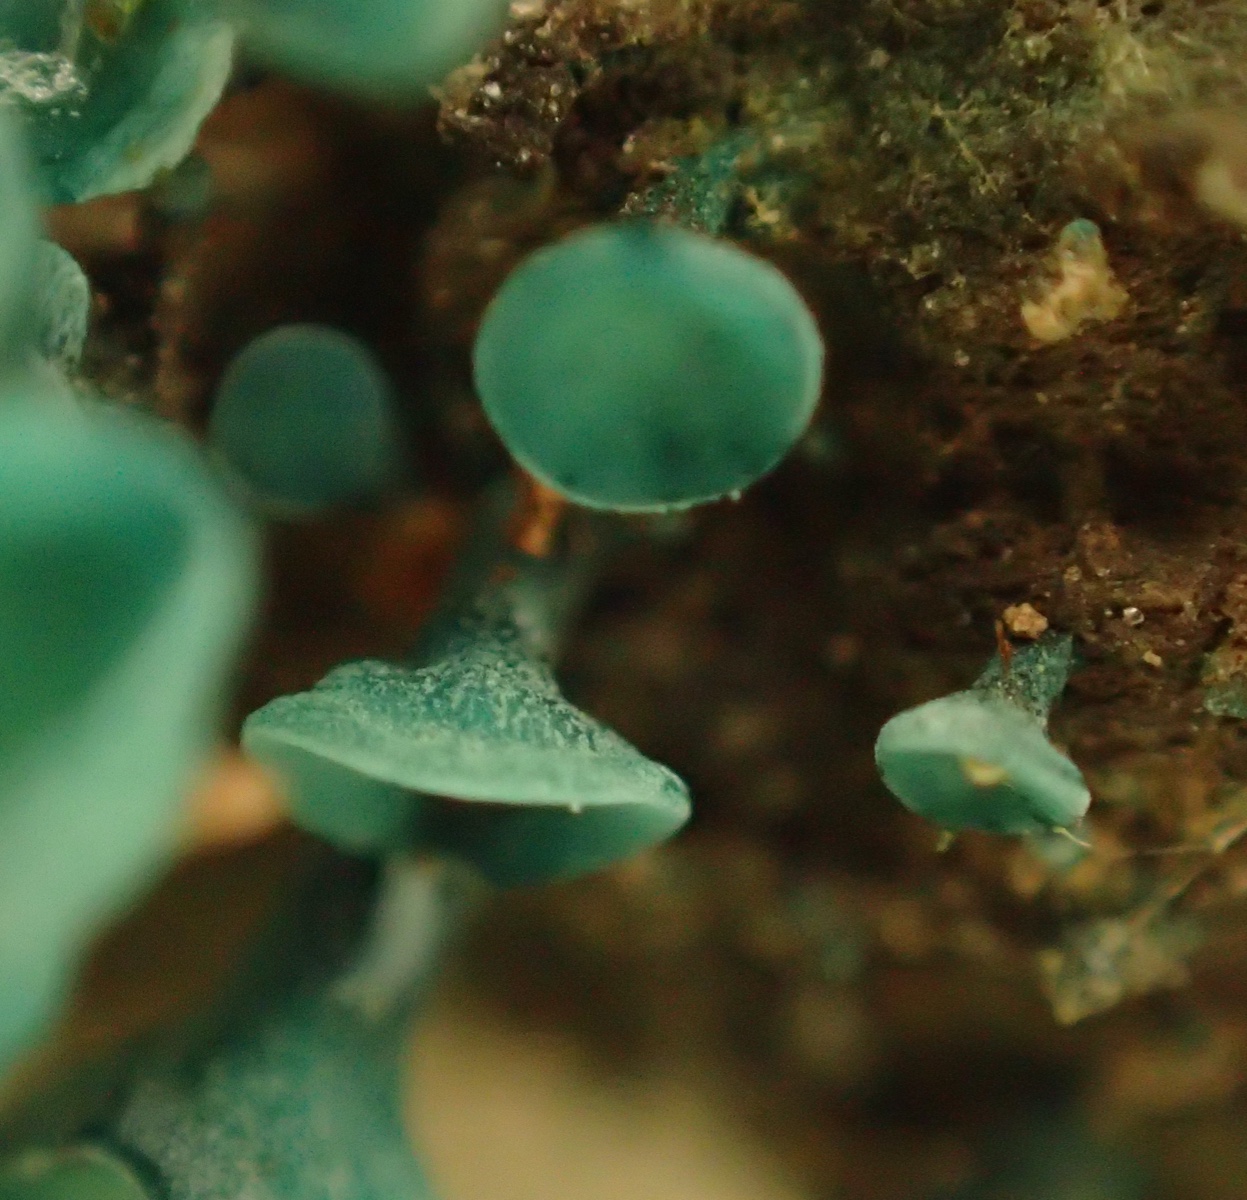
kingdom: Fungi
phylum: Ascomycota
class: Leotiomycetes
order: Helotiales
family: Chlorociboriaceae
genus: Chlorociboria
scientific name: Chlorociboria aeruginascens
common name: almindelig grønskive
